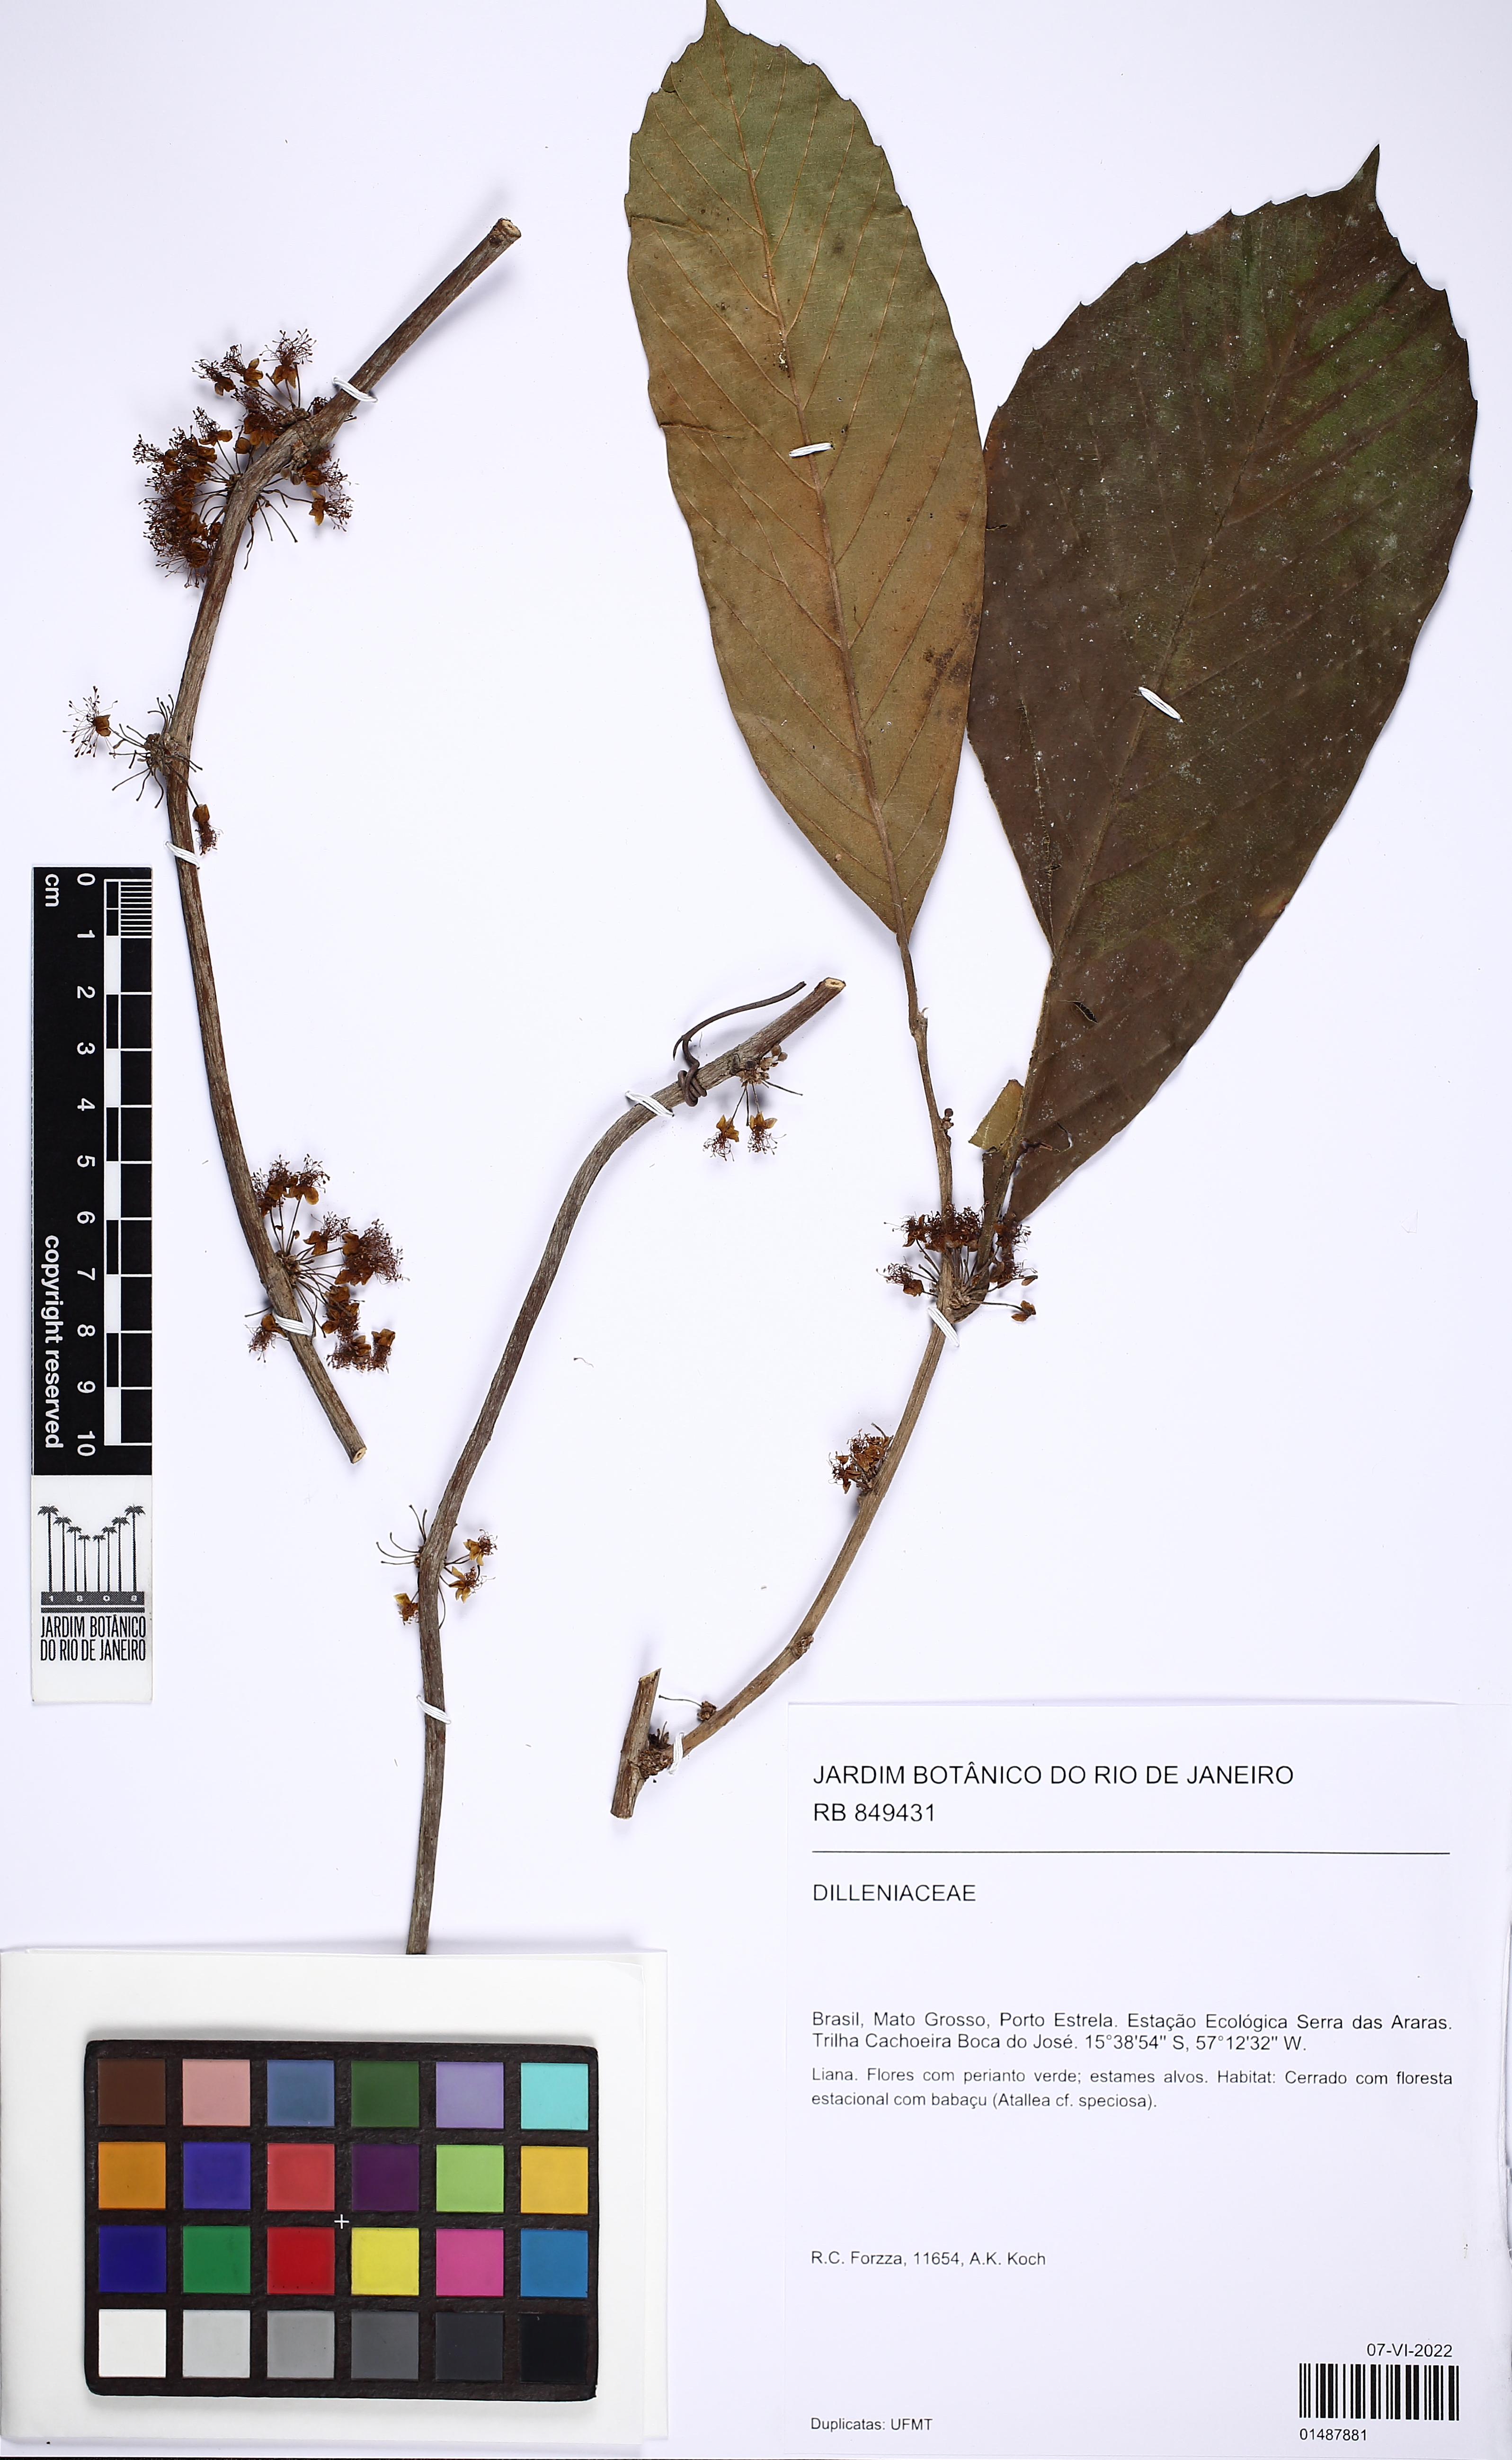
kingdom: Plantae
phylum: Tracheophyta
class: Magnoliopsida
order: Dilleniales
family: Dilleniaceae
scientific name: Dilleniaceae
